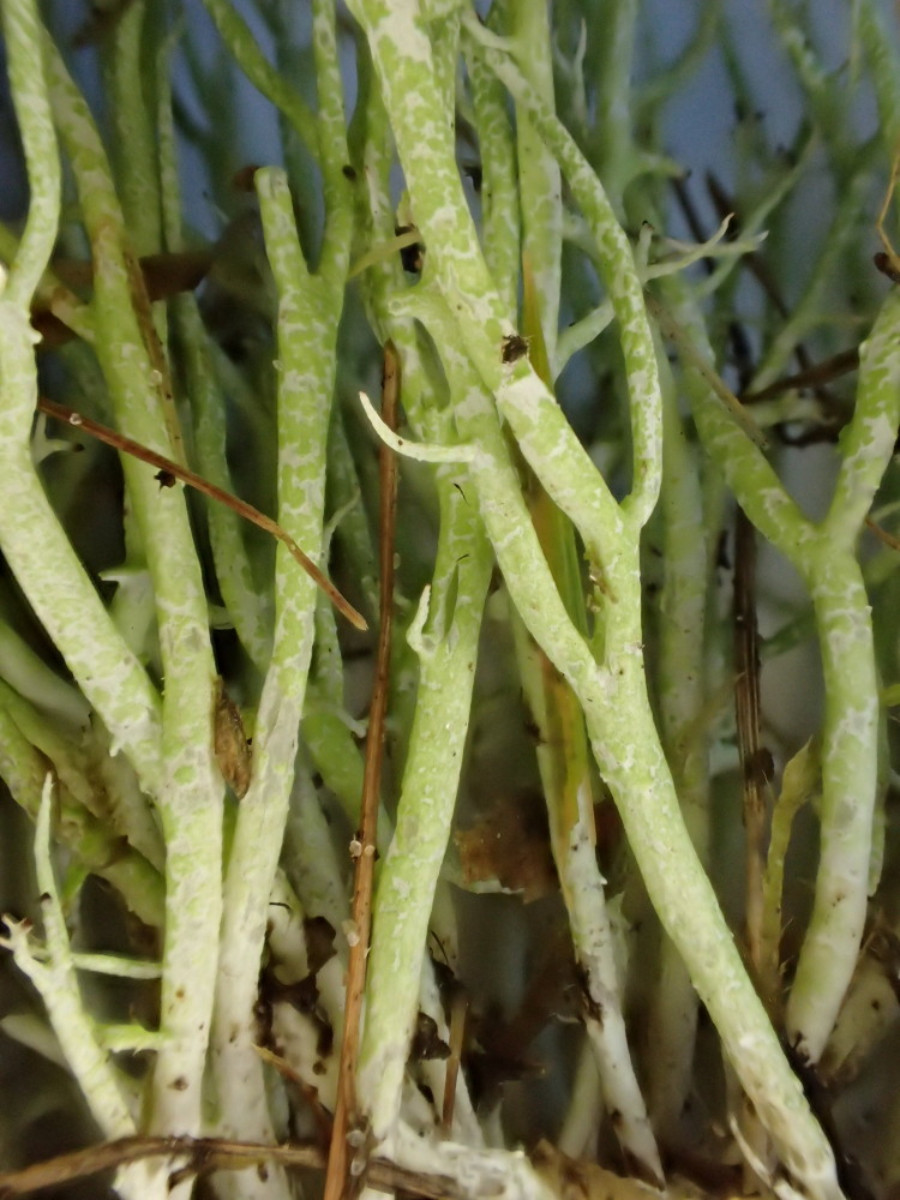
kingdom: Fungi
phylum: Ascomycota
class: Lecanoromycetes
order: Lecanorales
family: Cladoniaceae
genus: Cladonia
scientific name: Cladonia furcata
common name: kløftet bægerlav
